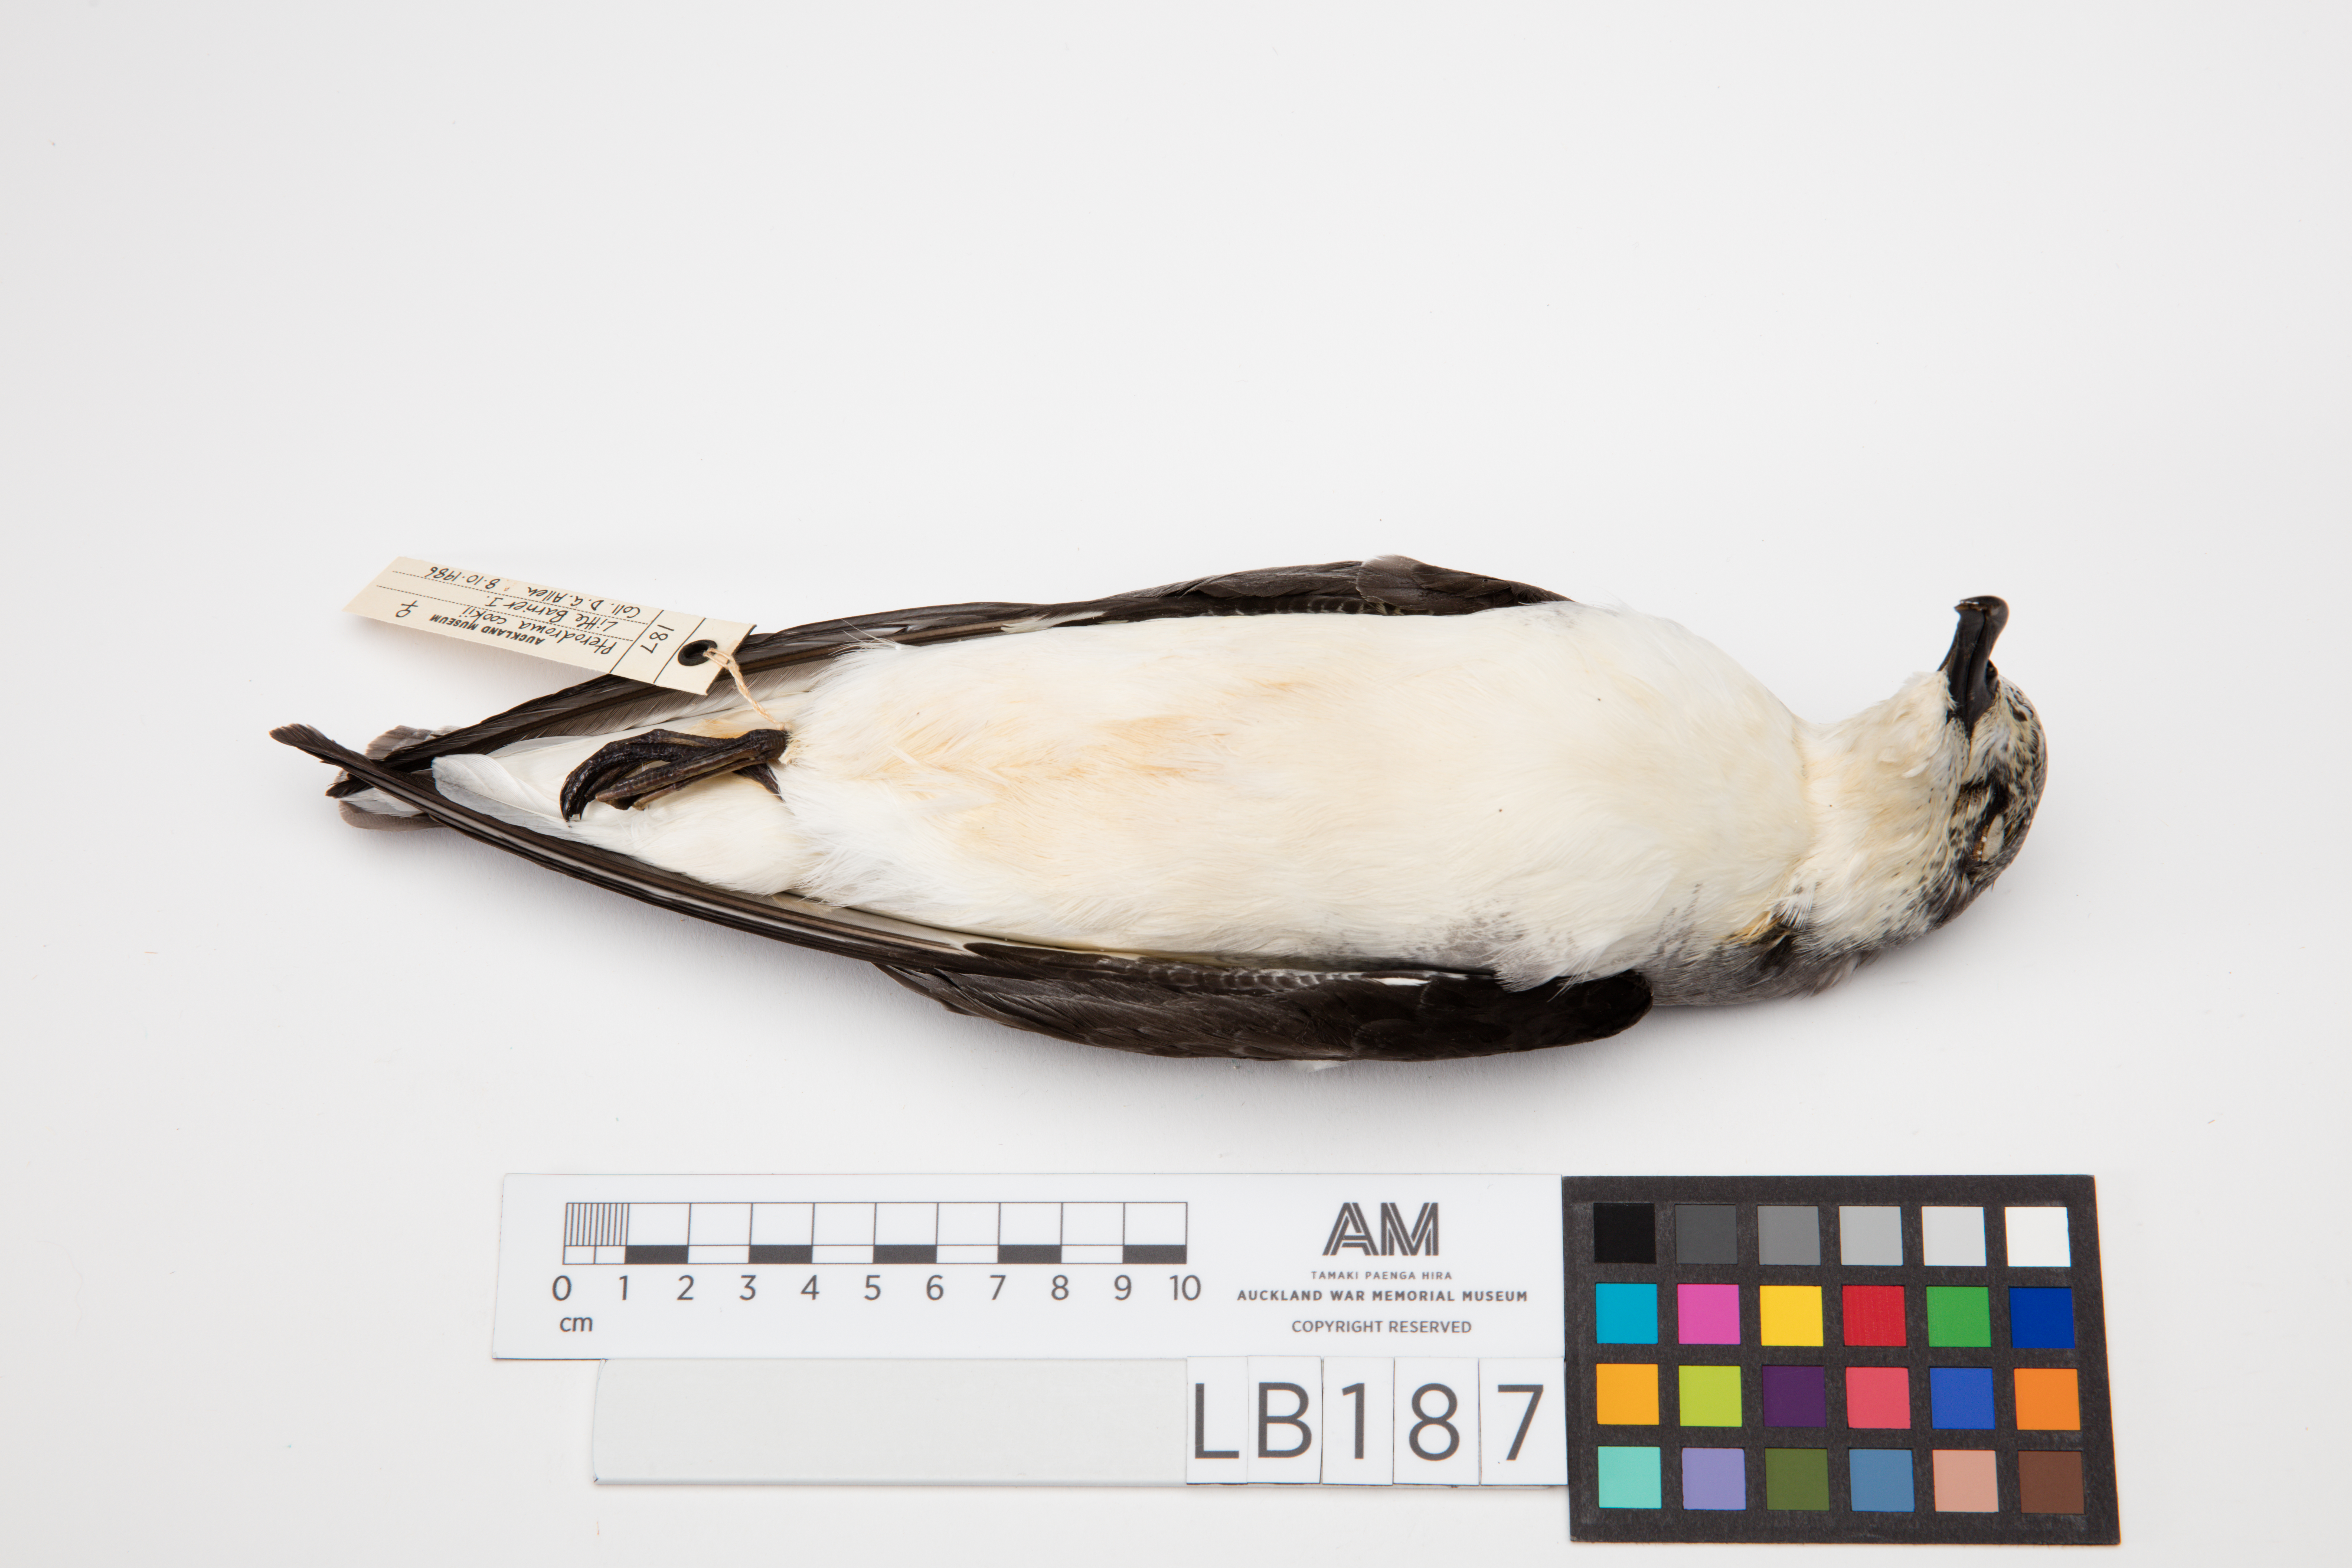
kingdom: Animalia
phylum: Chordata
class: Aves
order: Procellariiformes
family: Procellariidae
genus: Pterodroma
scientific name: Pterodroma cookii
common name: Cook's petrel
